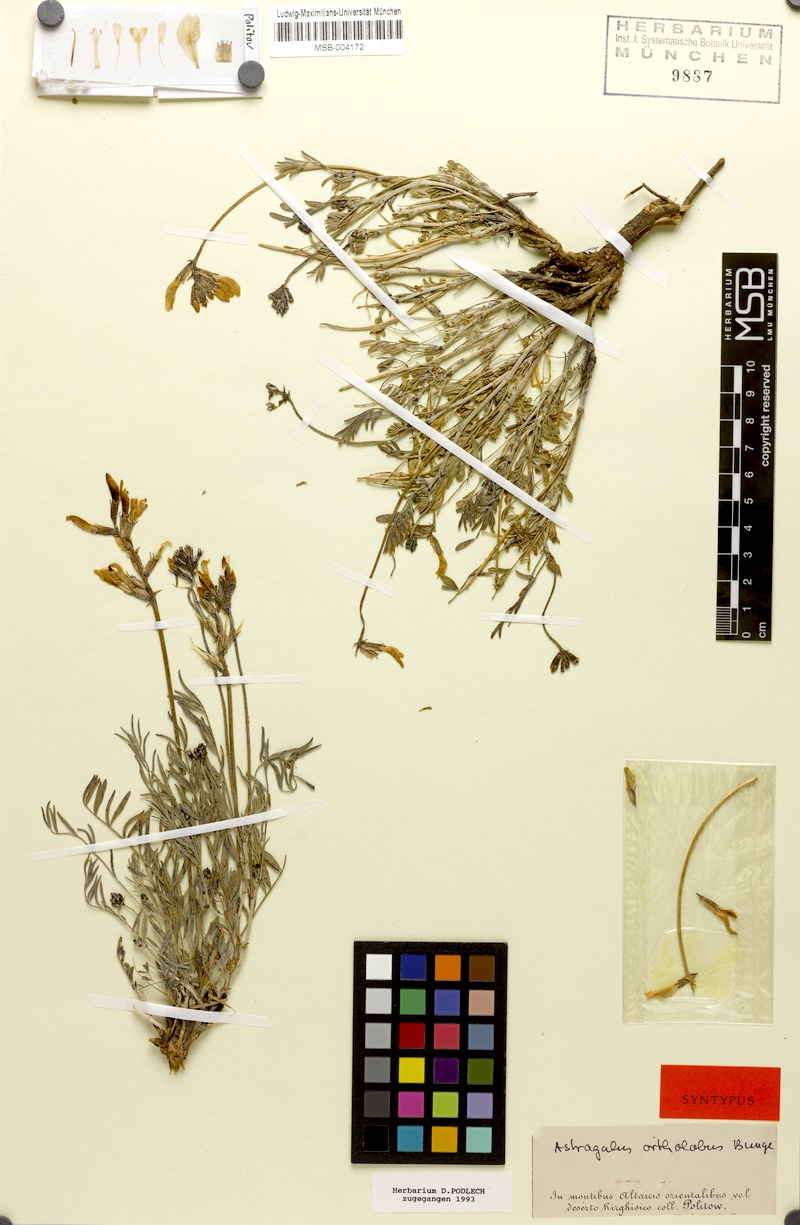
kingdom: Plantae
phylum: Tracheophyta
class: Magnoliopsida
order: Fabales
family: Fabaceae
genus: Astragalus
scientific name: Astragalus ortholobus
